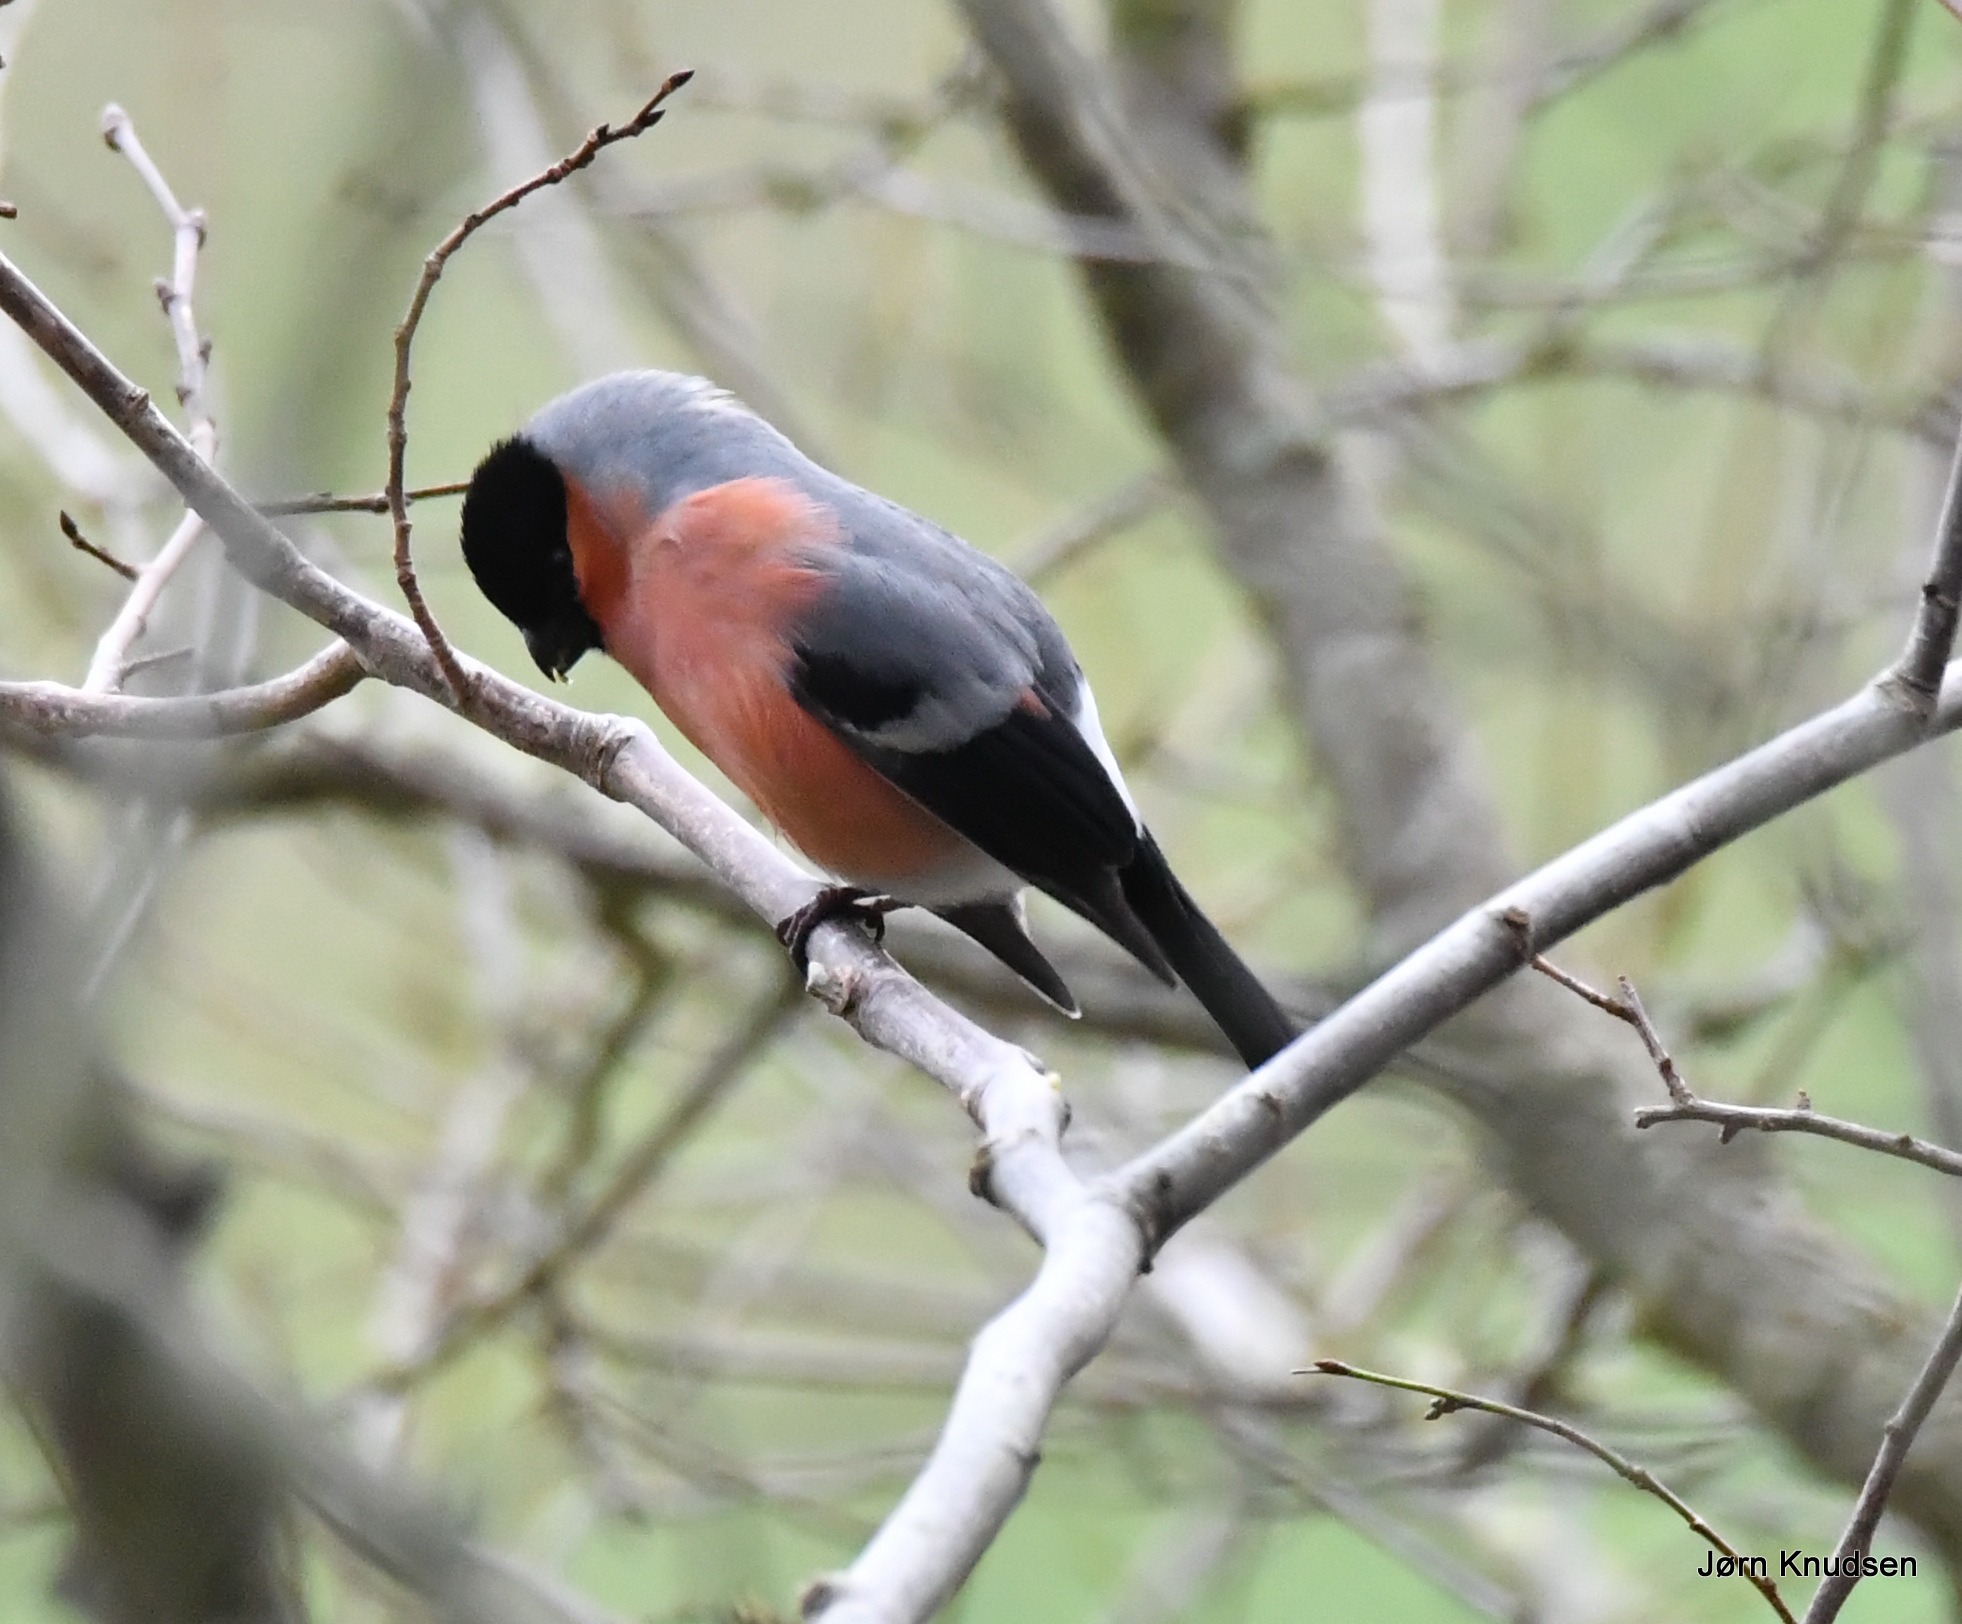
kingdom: Animalia
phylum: Chordata
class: Aves
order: Passeriformes
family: Fringillidae
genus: Pyrrhula
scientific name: Pyrrhula pyrrhula
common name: Dompap
